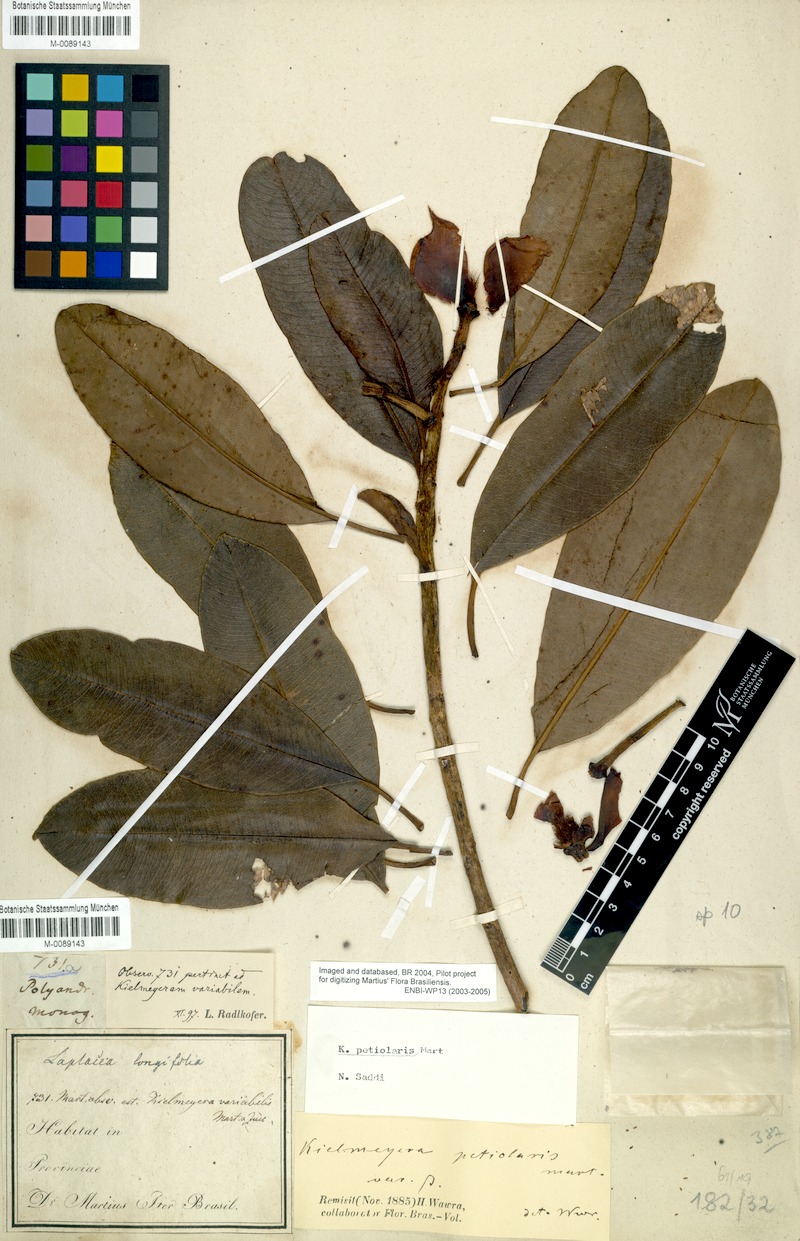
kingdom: Plantae
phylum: Tracheophyta
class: Magnoliopsida
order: Malpighiales
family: Calophyllaceae
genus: Kielmeyera
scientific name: Kielmeyera petiolaris
